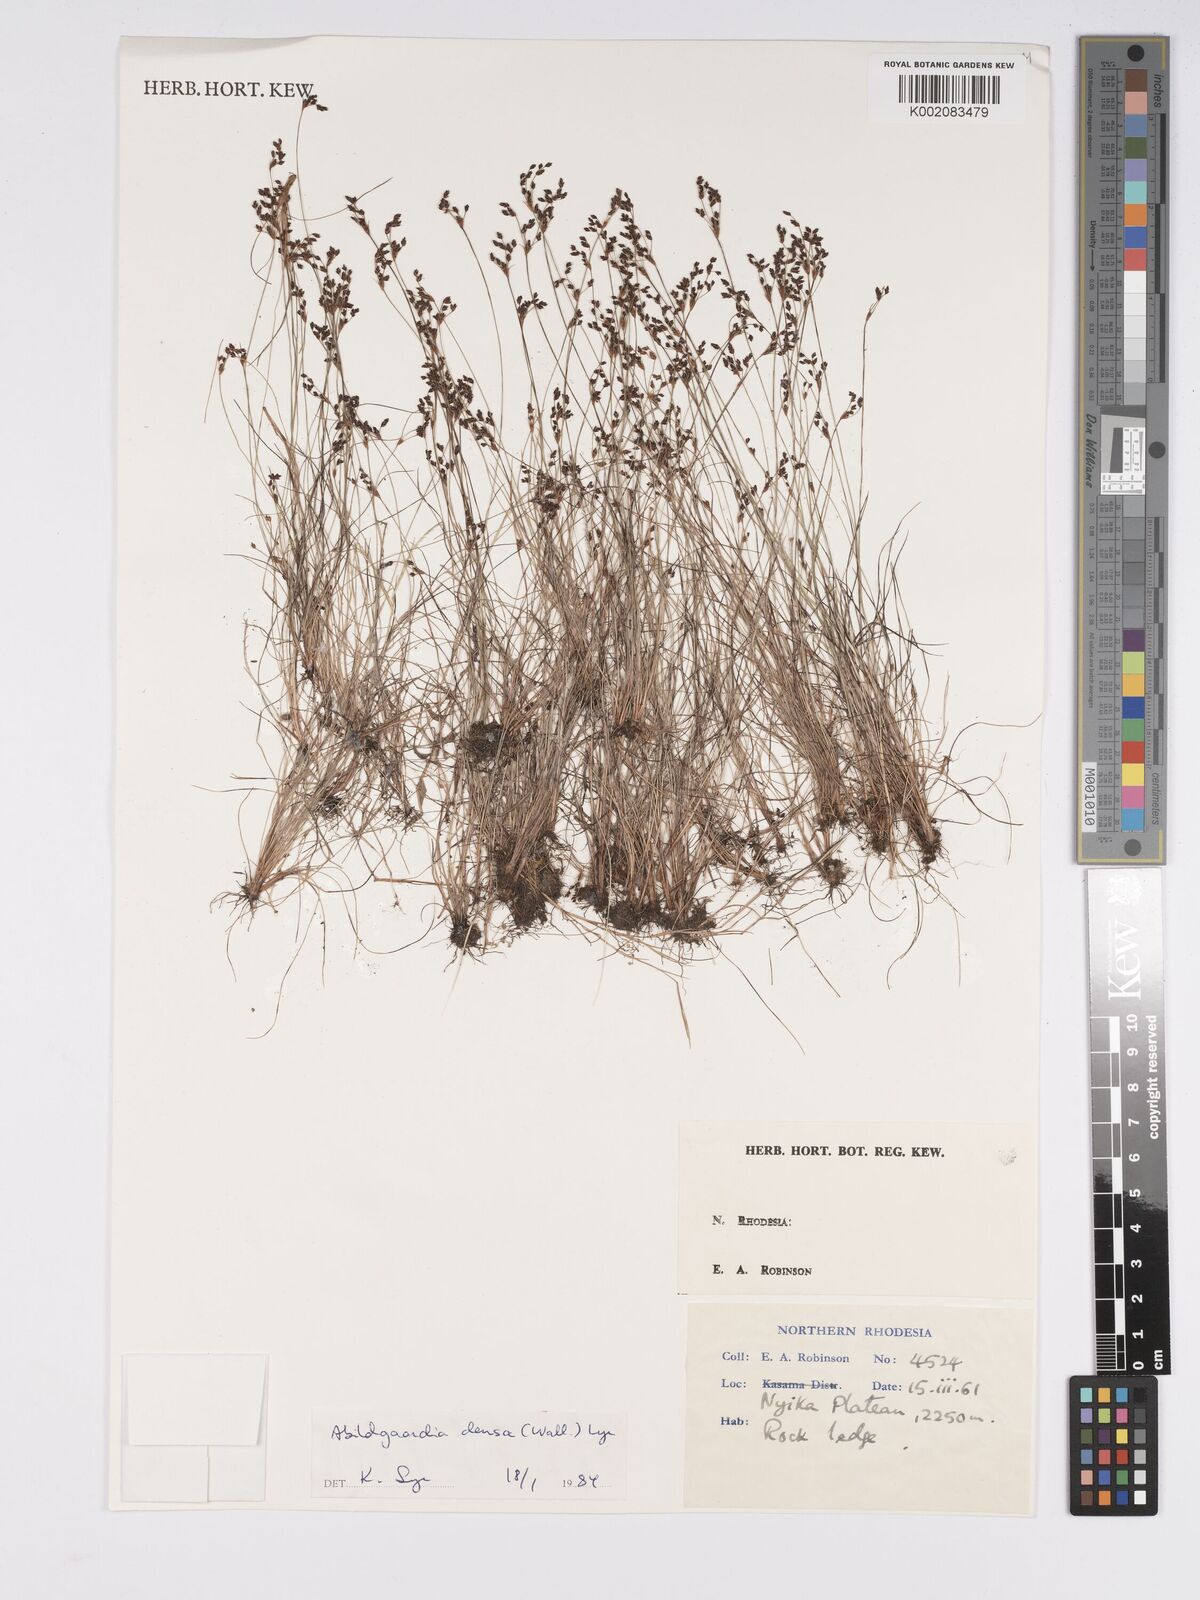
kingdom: Plantae
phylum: Tracheophyta
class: Liliopsida
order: Poales
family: Cyperaceae
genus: Bulbostylis
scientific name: Bulbostylis densa
